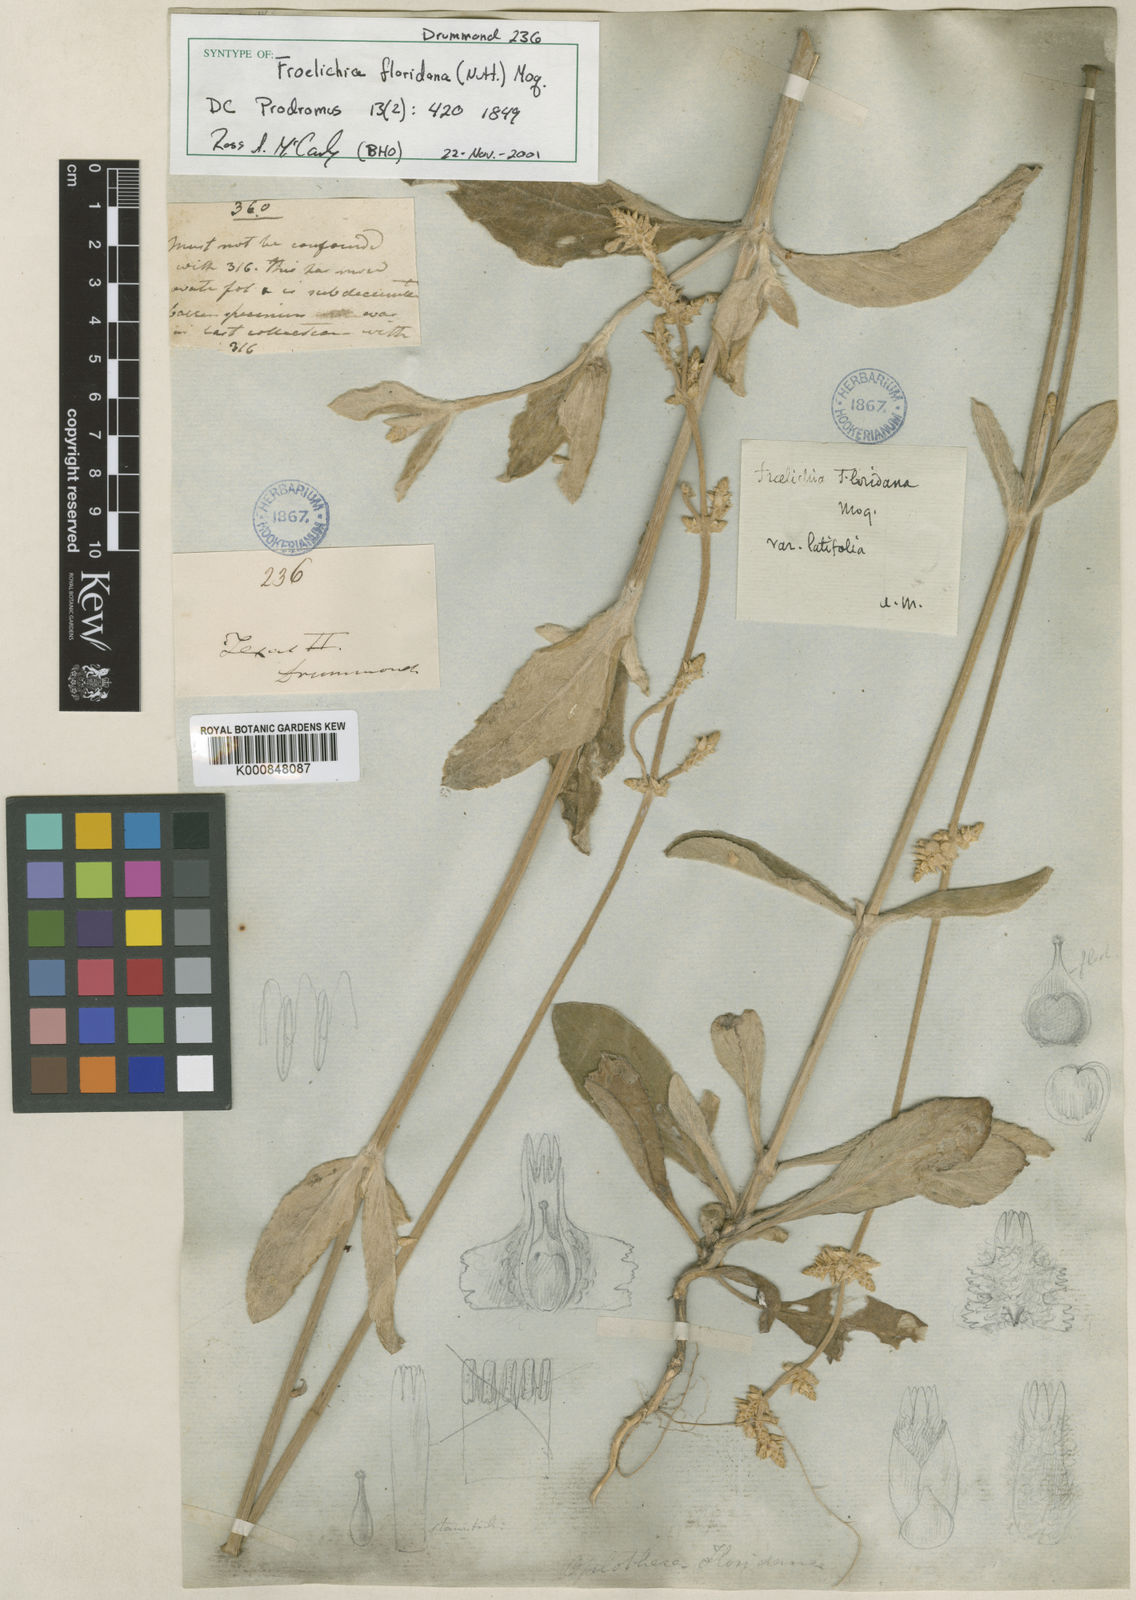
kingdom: Plantae
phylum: Tracheophyta
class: Magnoliopsida
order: Caryophyllales
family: Amaranthaceae
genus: Froelichia
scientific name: Froelichia floridana
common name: Florida snake-cotton
